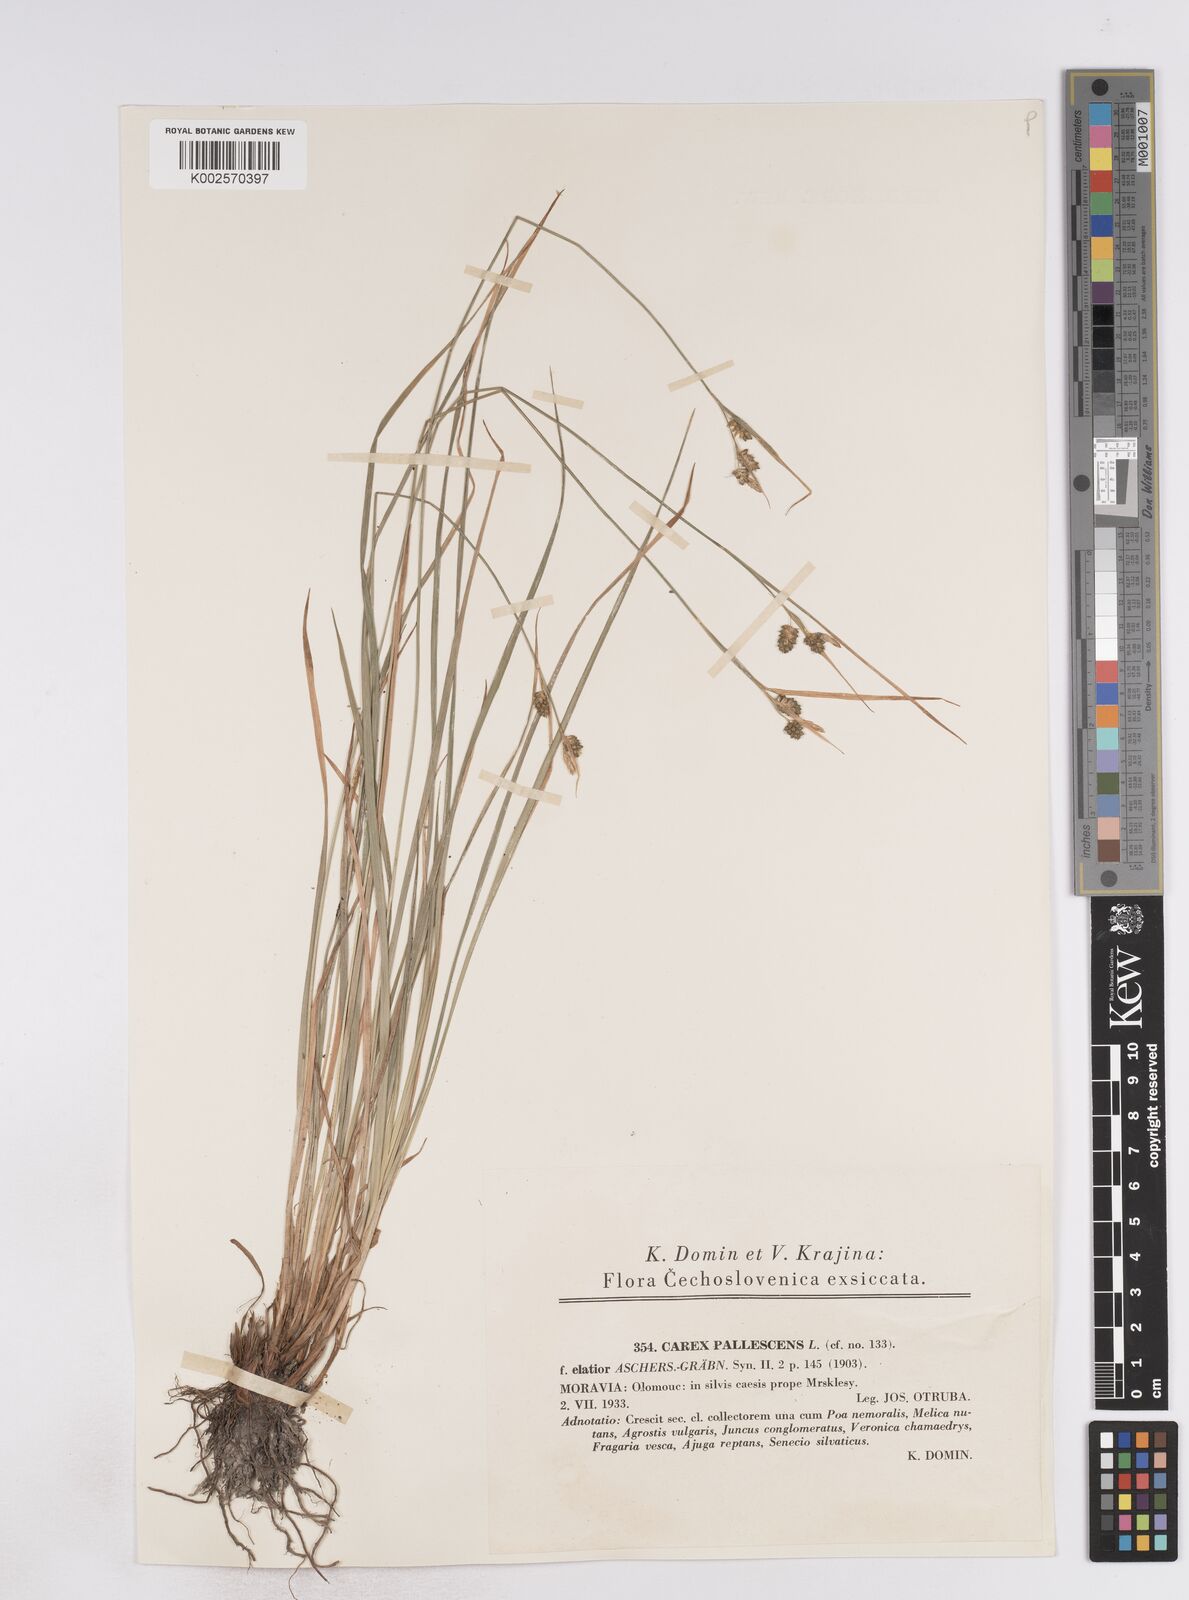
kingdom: Plantae
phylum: Tracheophyta
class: Liliopsida
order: Poales
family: Cyperaceae
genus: Carex
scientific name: Carex pallescens
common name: Pale sedge
